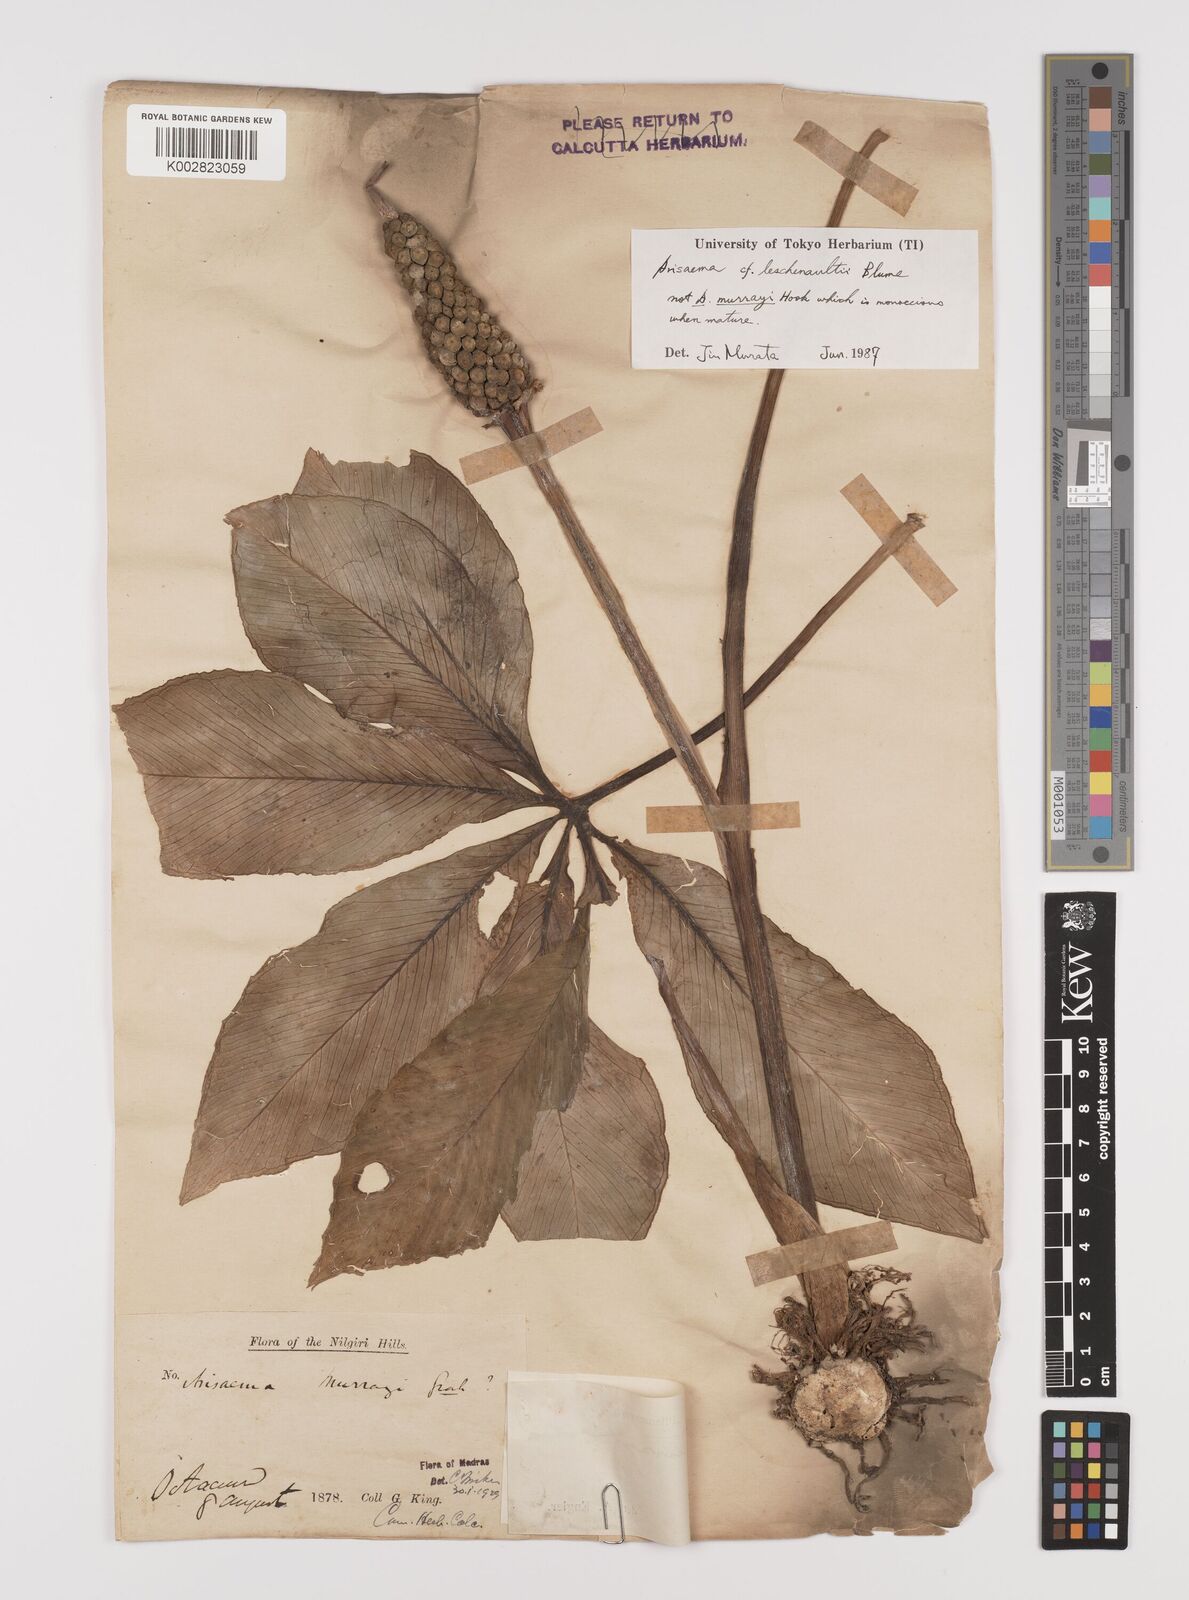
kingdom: Plantae
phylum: Tracheophyta
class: Liliopsida
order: Alismatales
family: Araceae
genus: Arisaema
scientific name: Arisaema leschenaultii
